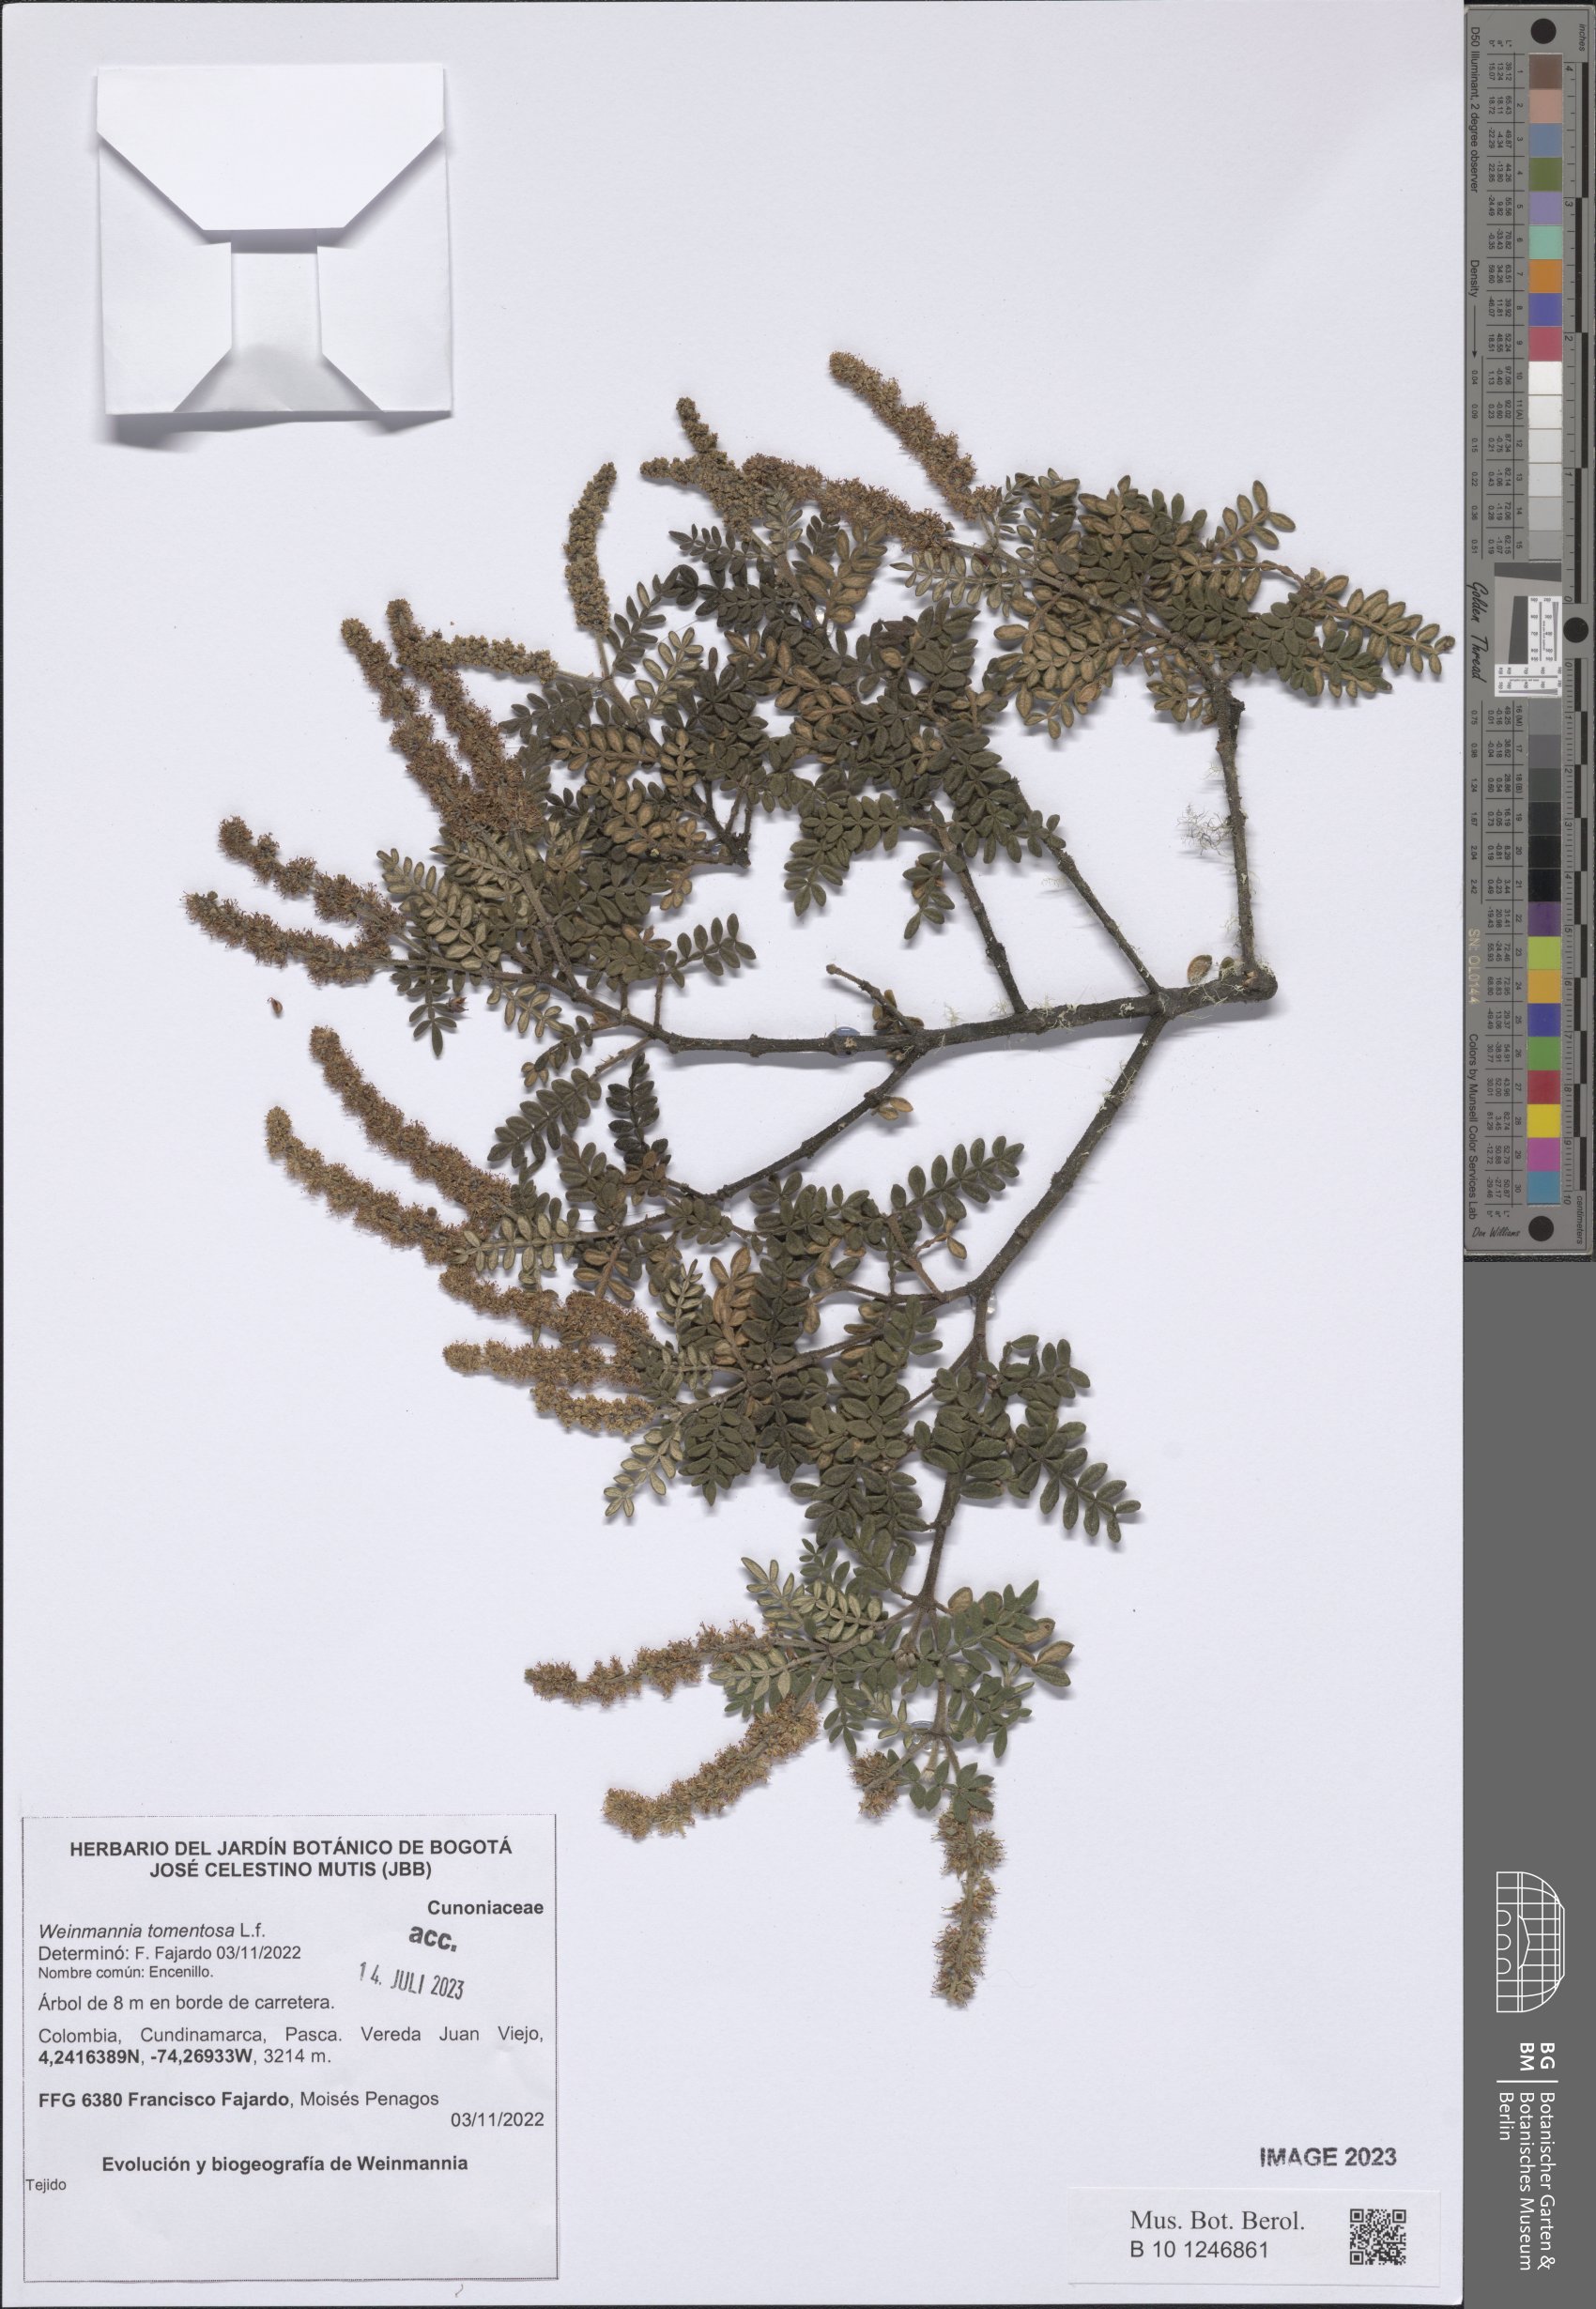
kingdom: Plantae
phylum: Tracheophyta
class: Magnoliopsida
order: Oxalidales
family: Cunoniaceae
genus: Weinmannia
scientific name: Weinmannia tomentosa
